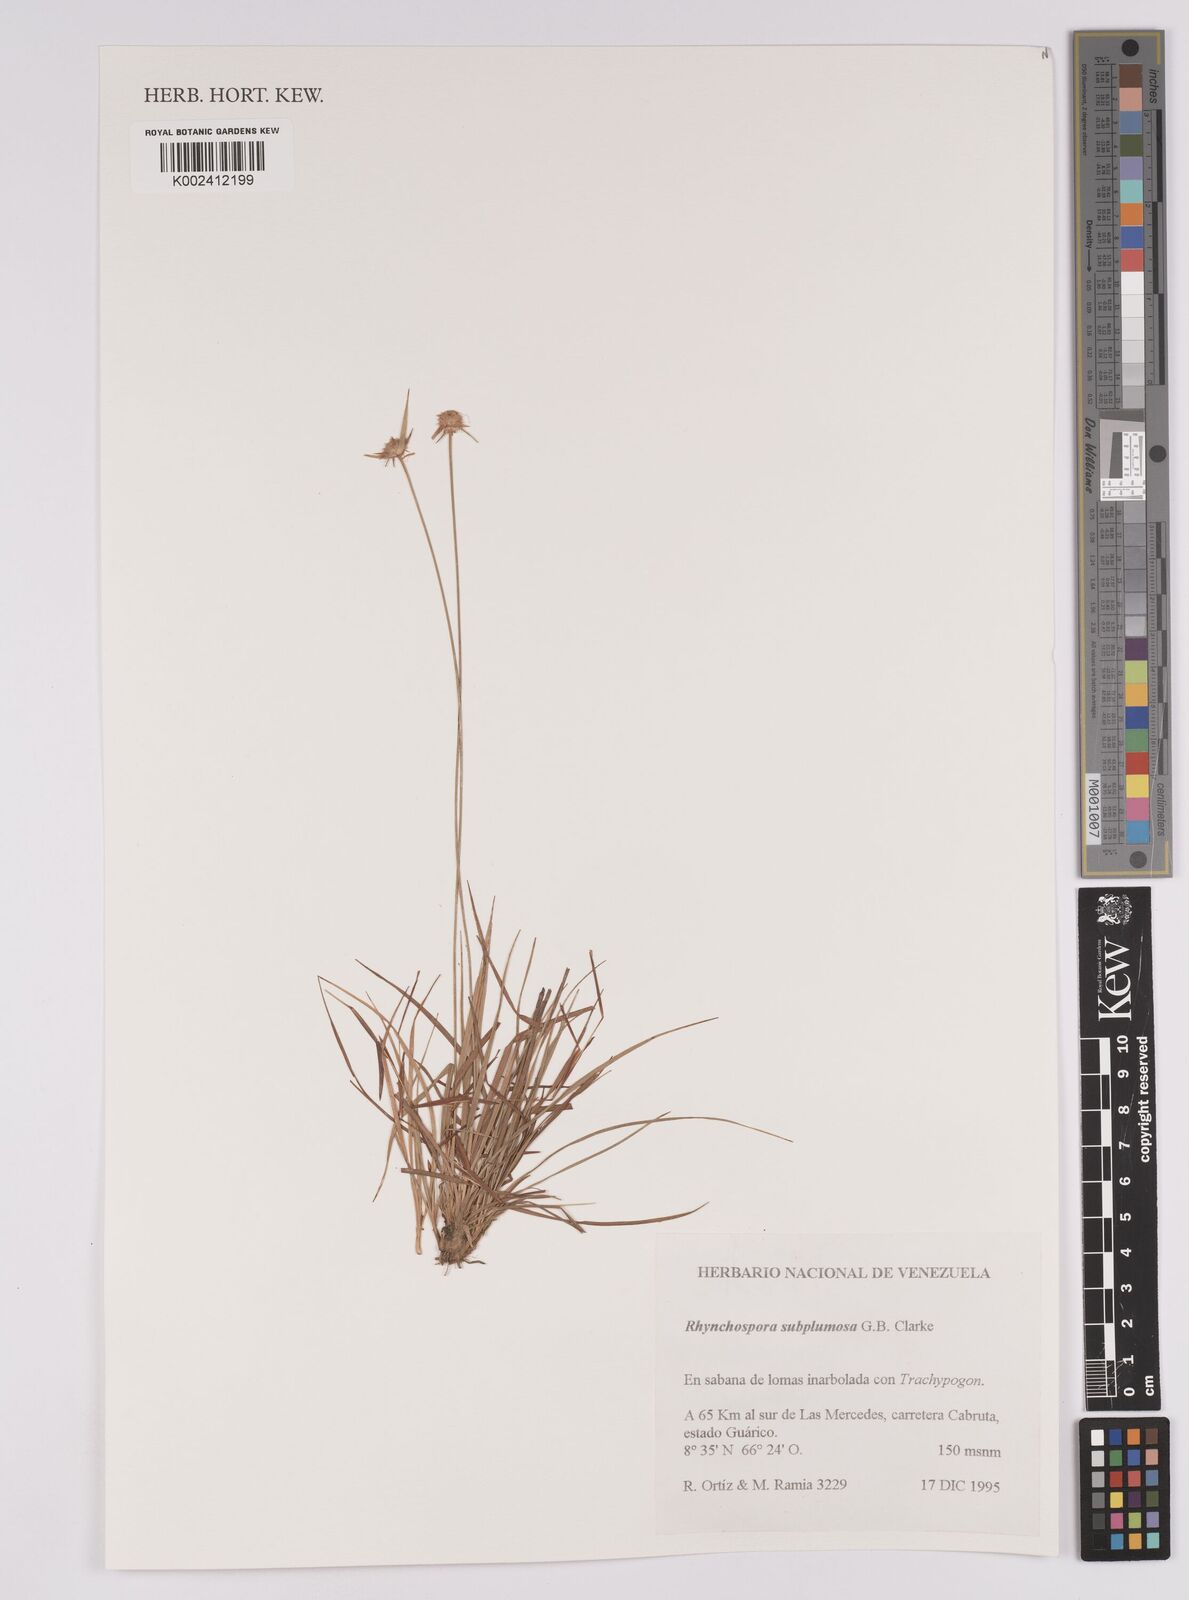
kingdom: Plantae
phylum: Tracheophyta
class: Liliopsida
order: Poales
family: Cyperaceae
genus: Rhynchospora
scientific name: Rhynchospora subplumosa
